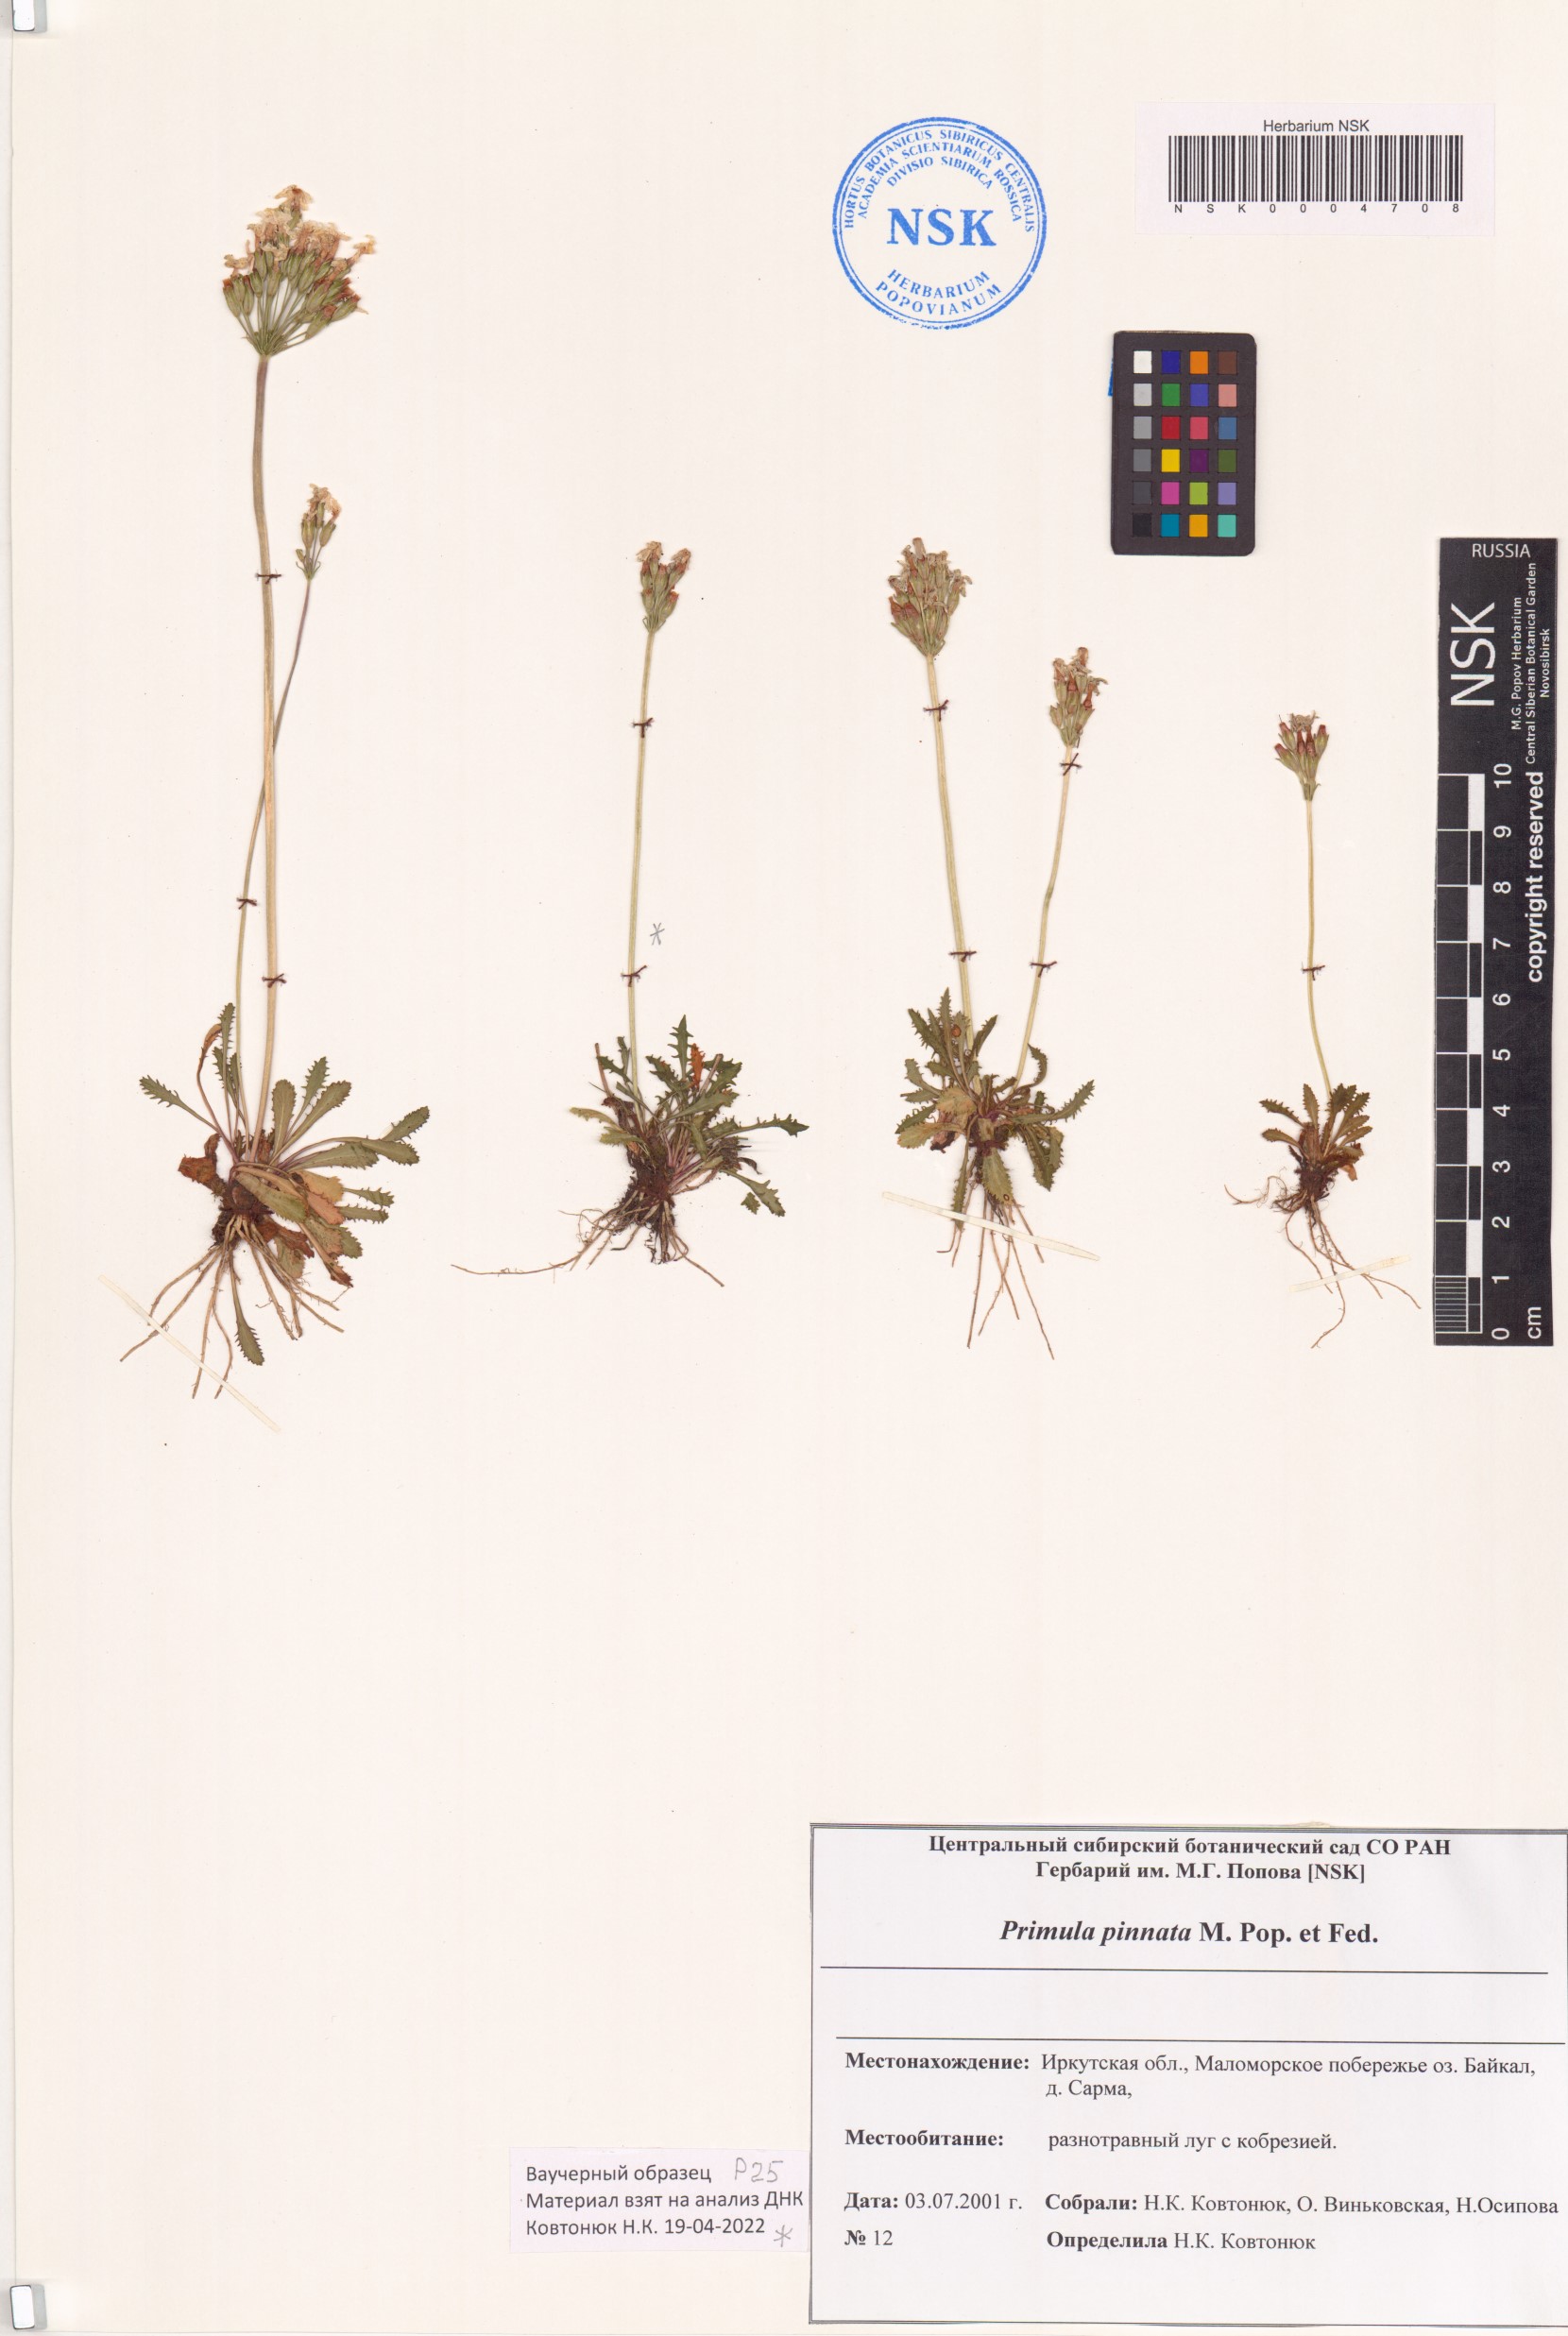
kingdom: Plantae
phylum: Tracheophyta
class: Magnoliopsida
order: Ericales
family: Primulaceae
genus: Primula
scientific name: Primula pinnata
